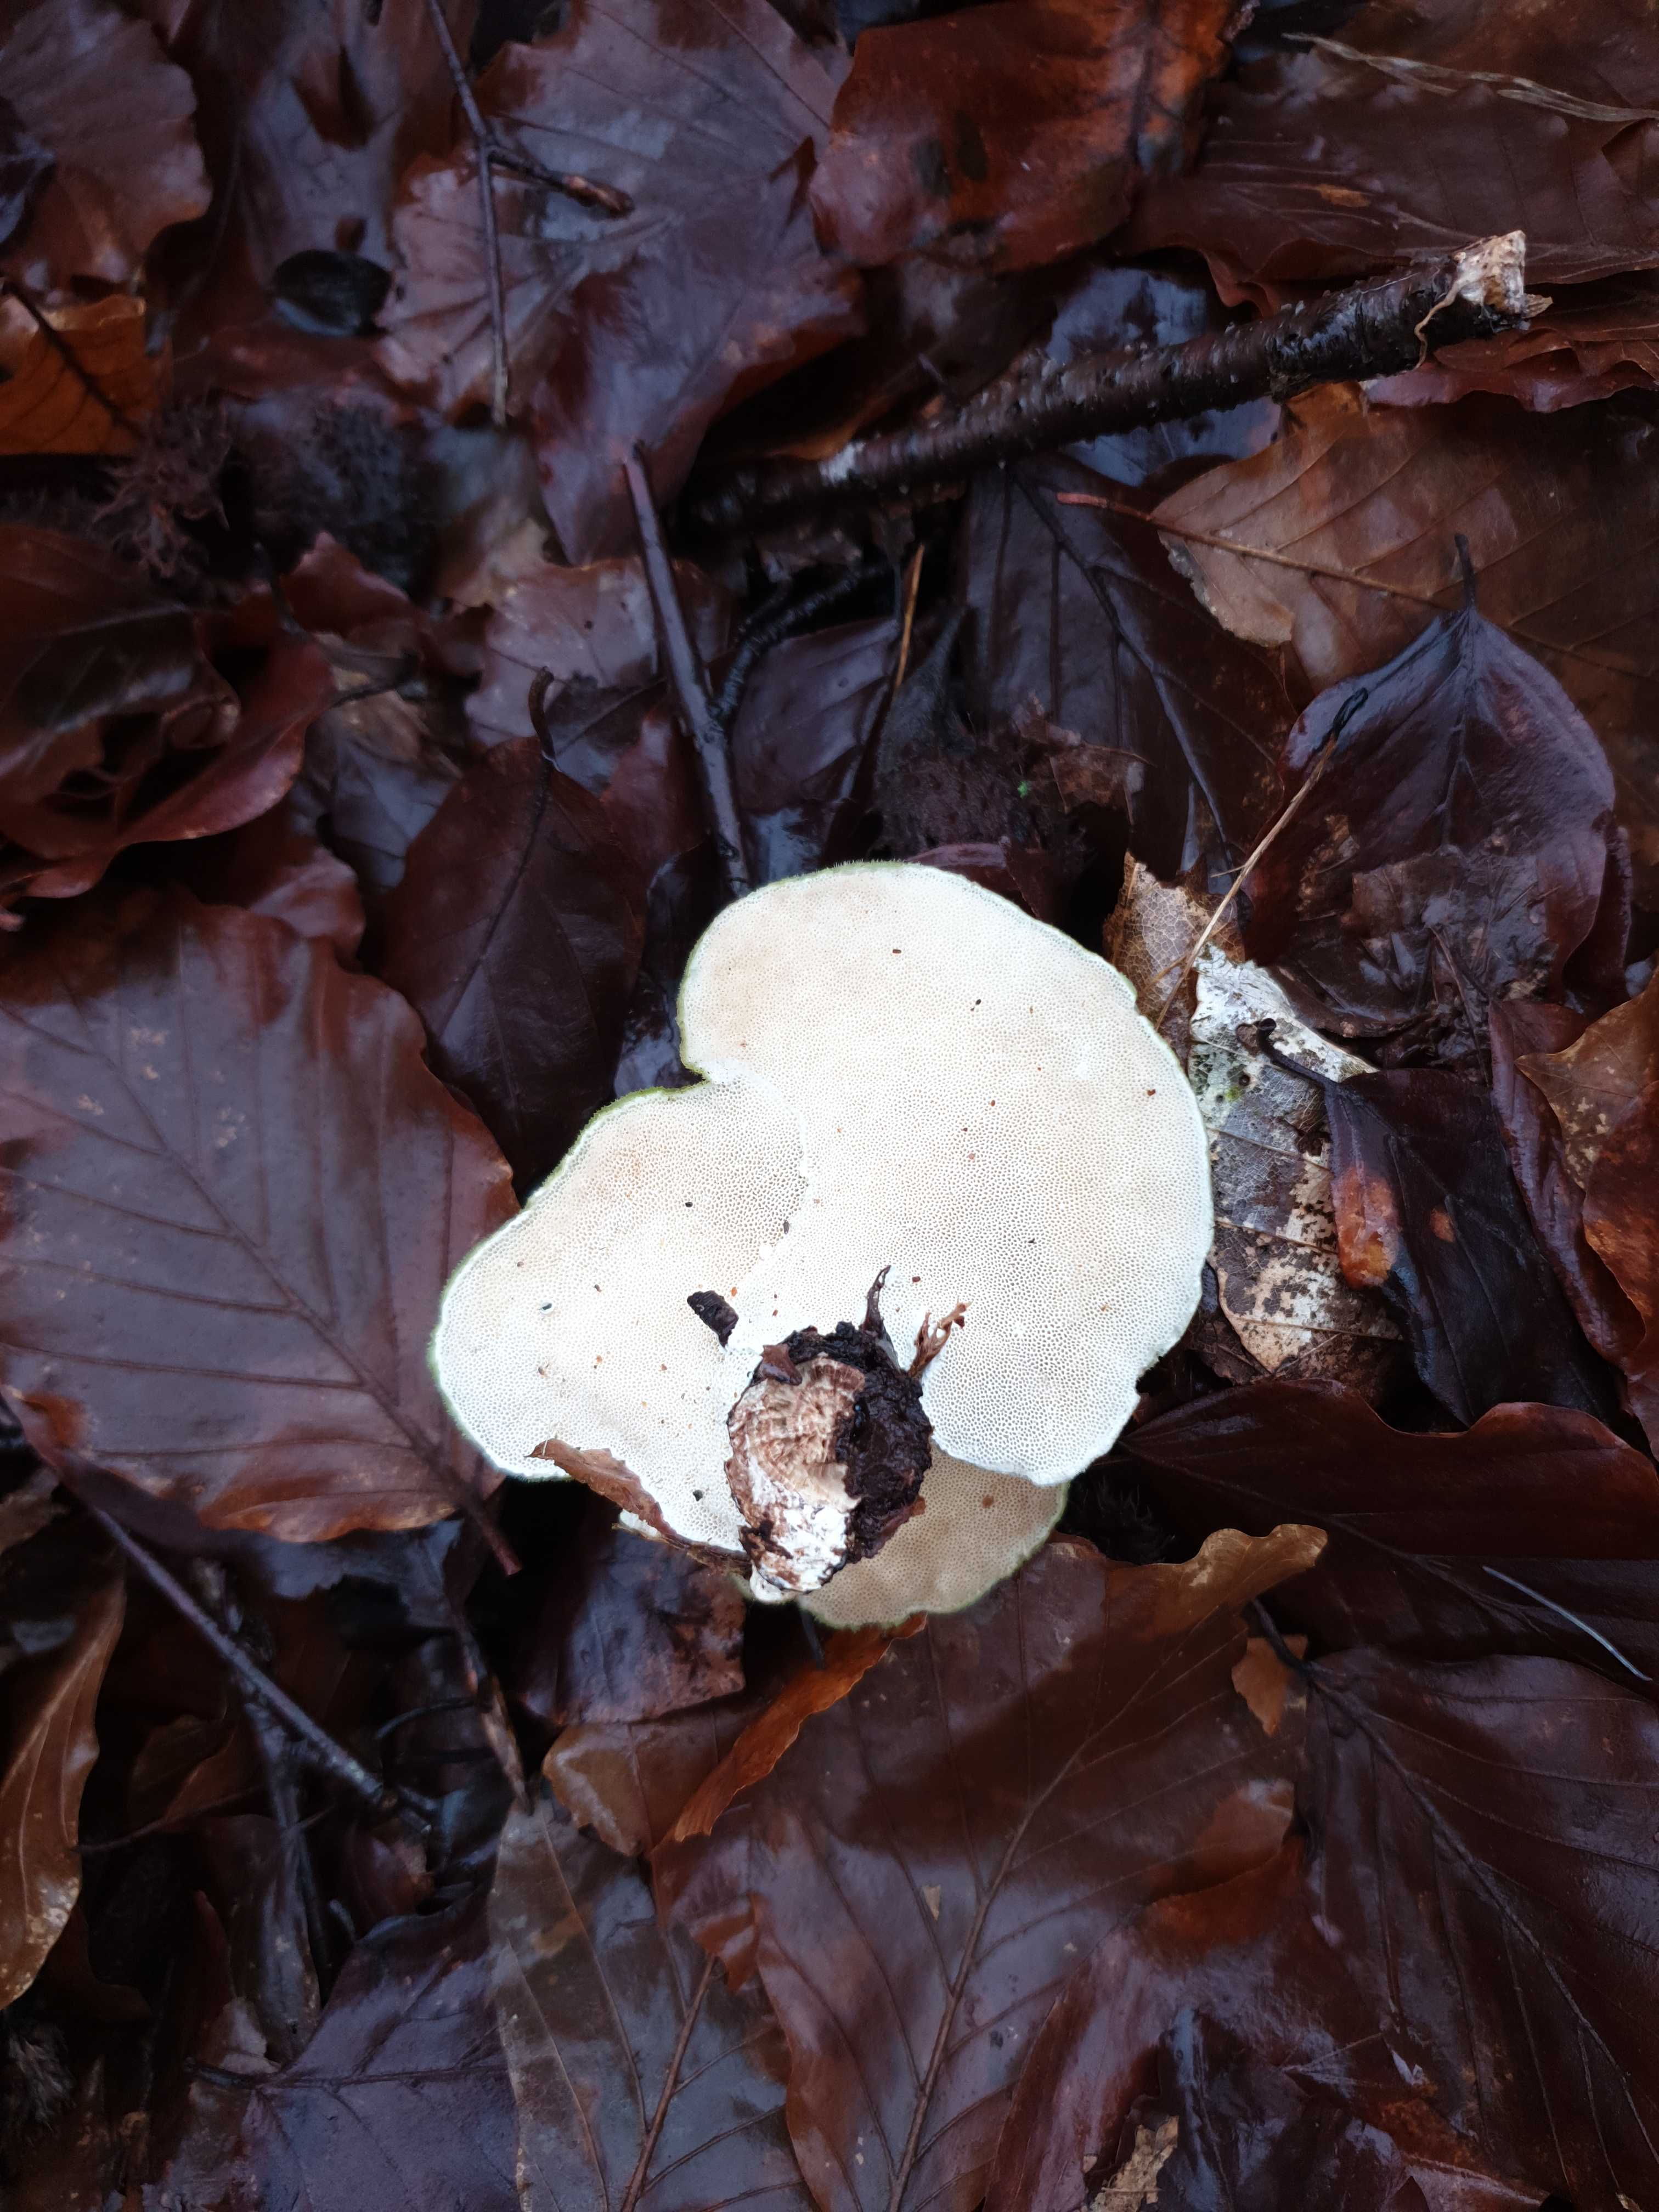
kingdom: Fungi
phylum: Basidiomycota
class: Agaricomycetes
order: Polyporales
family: Polyporaceae
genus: Trametes
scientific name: Trametes hirsuta
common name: håret læderporesvamp
